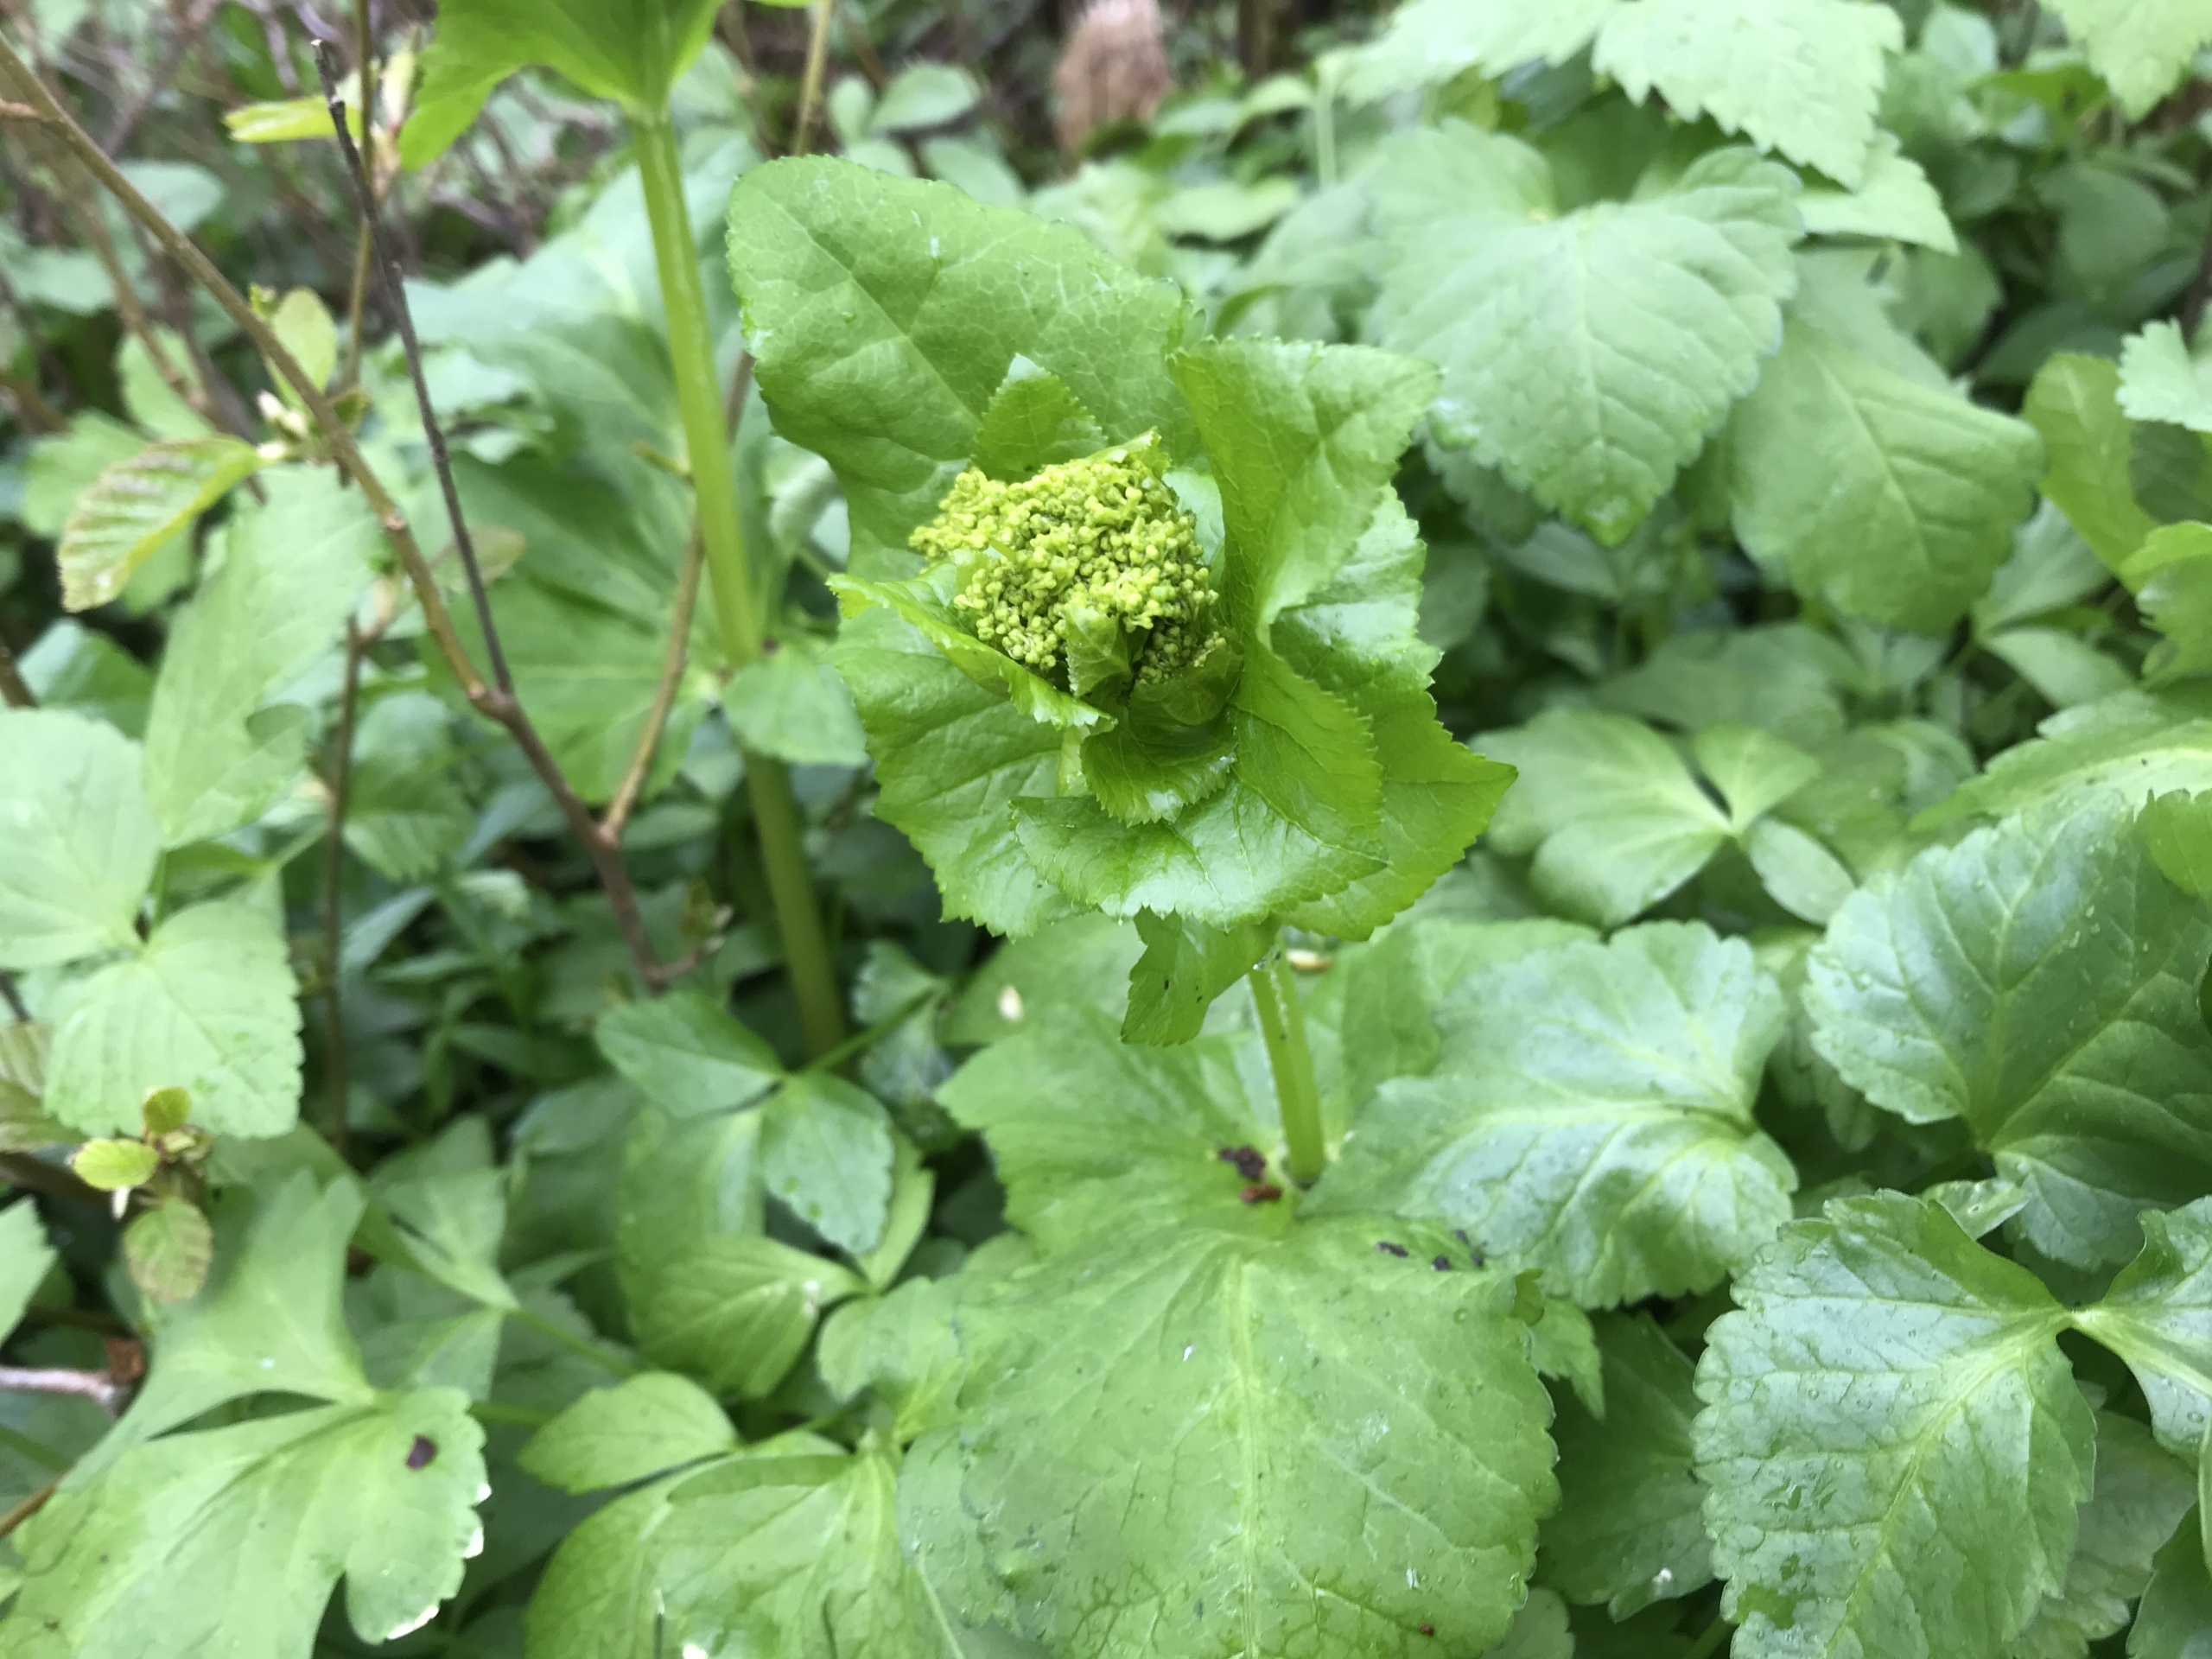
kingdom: Plantae
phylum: Tracheophyta
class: Magnoliopsida
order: Apiales
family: Apiaceae
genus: Smyrnium
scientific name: Smyrnium perfoliatum
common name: Lundgylden
